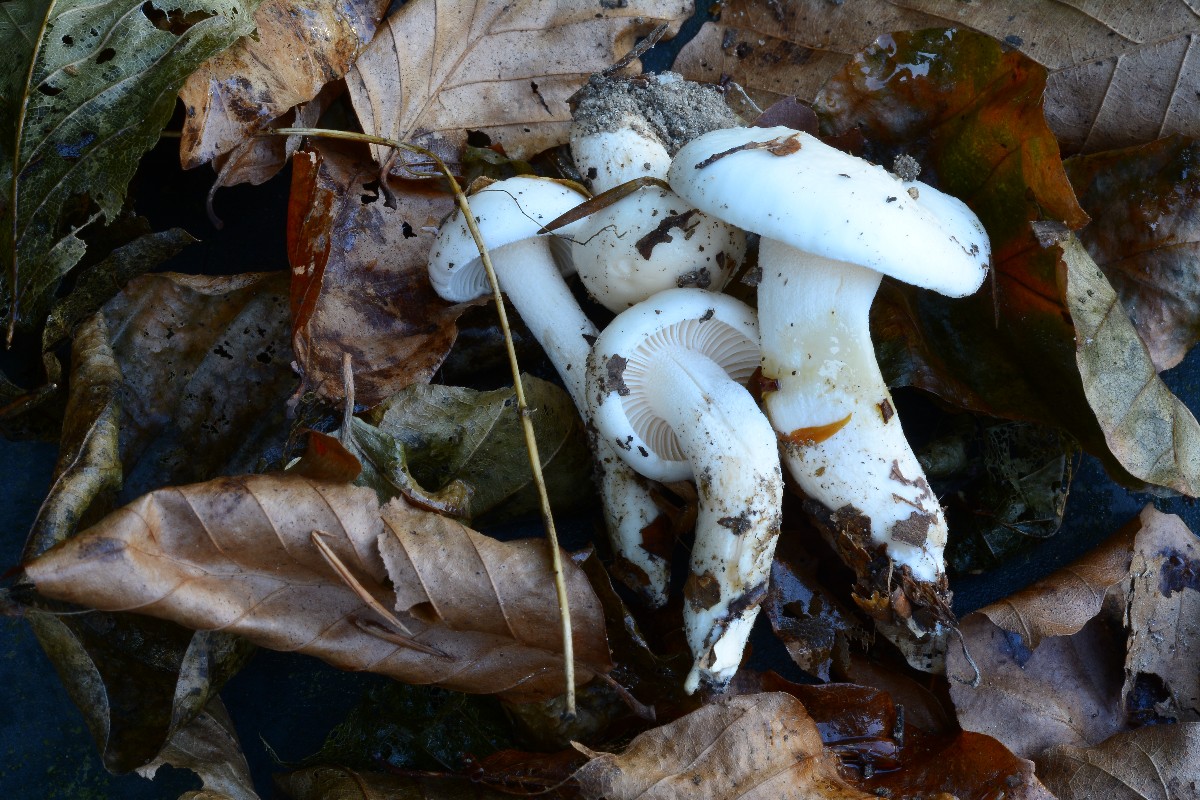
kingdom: Fungi
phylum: Basidiomycota
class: Agaricomycetes
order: Agaricales
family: Hygrophoraceae
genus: Hygrophorus
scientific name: Hygrophorus eburneus
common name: elfenbens-sneglehat
